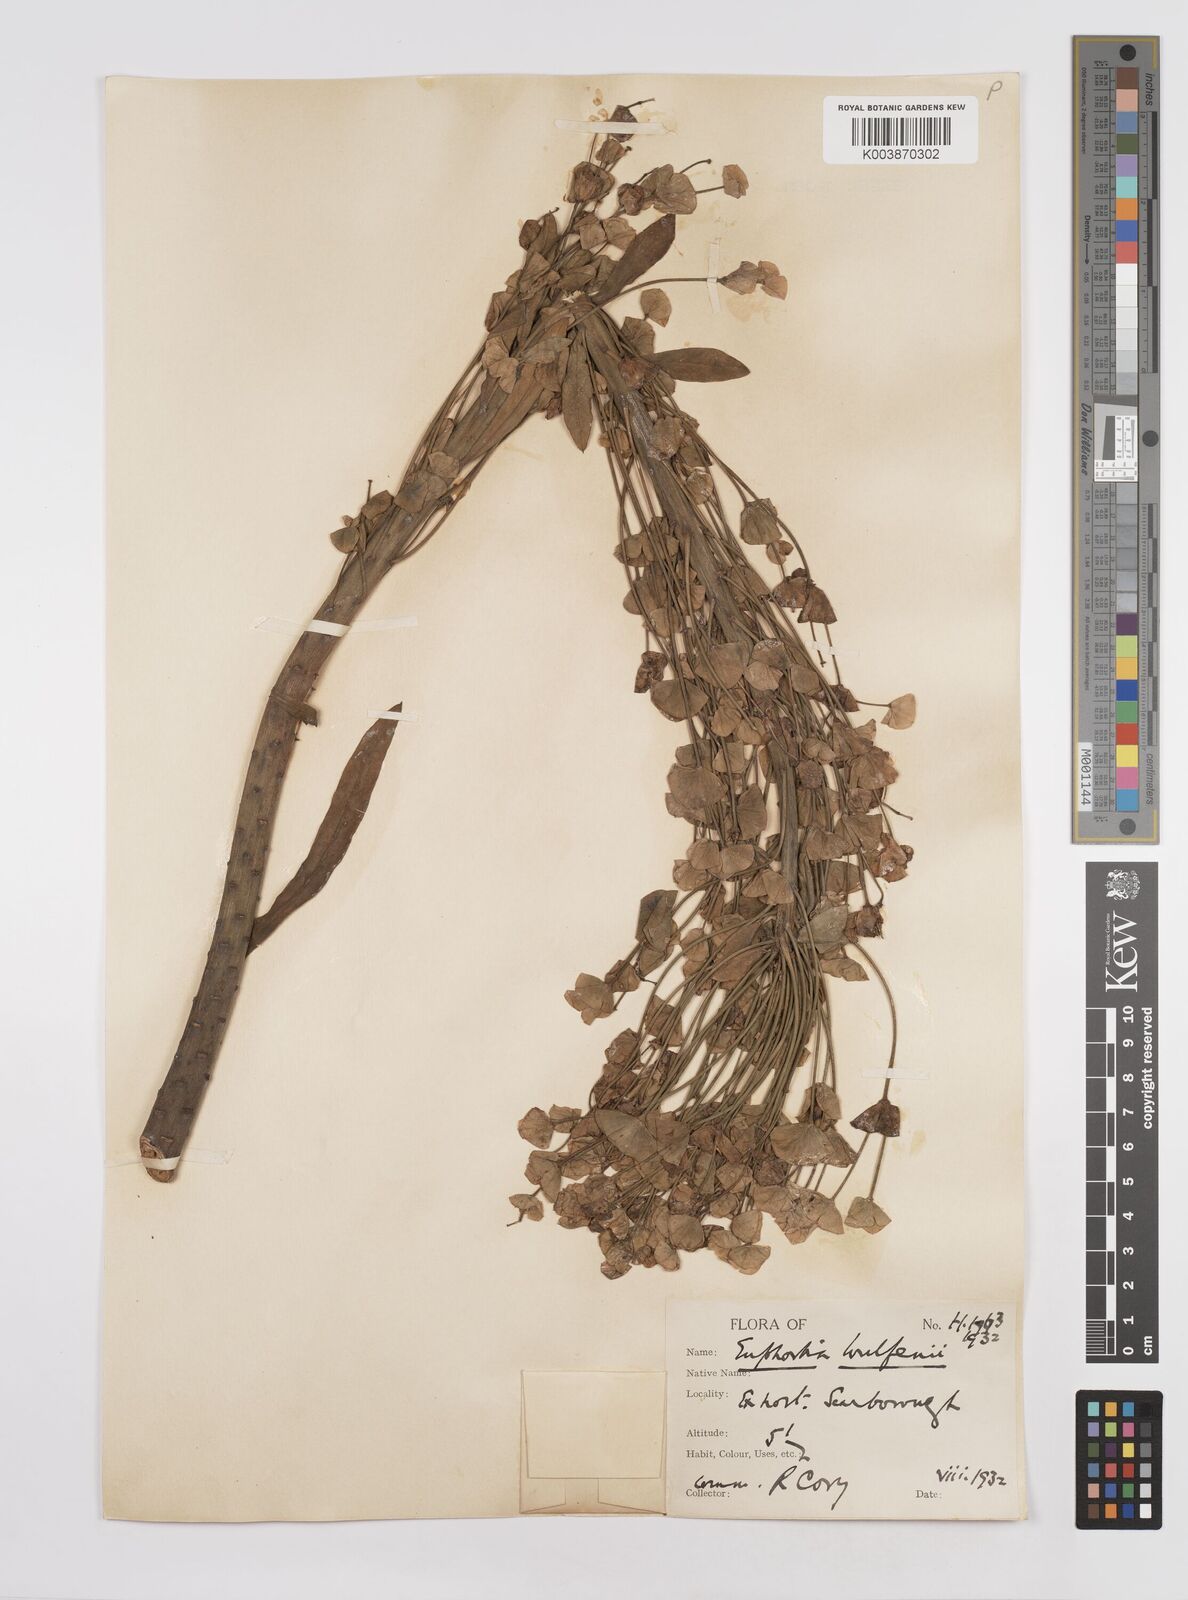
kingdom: Plantae
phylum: Tracheophyta
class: Magnoliopsida
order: Malpighiales
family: Euphorbiaceae
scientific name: Euphorbiaceae
